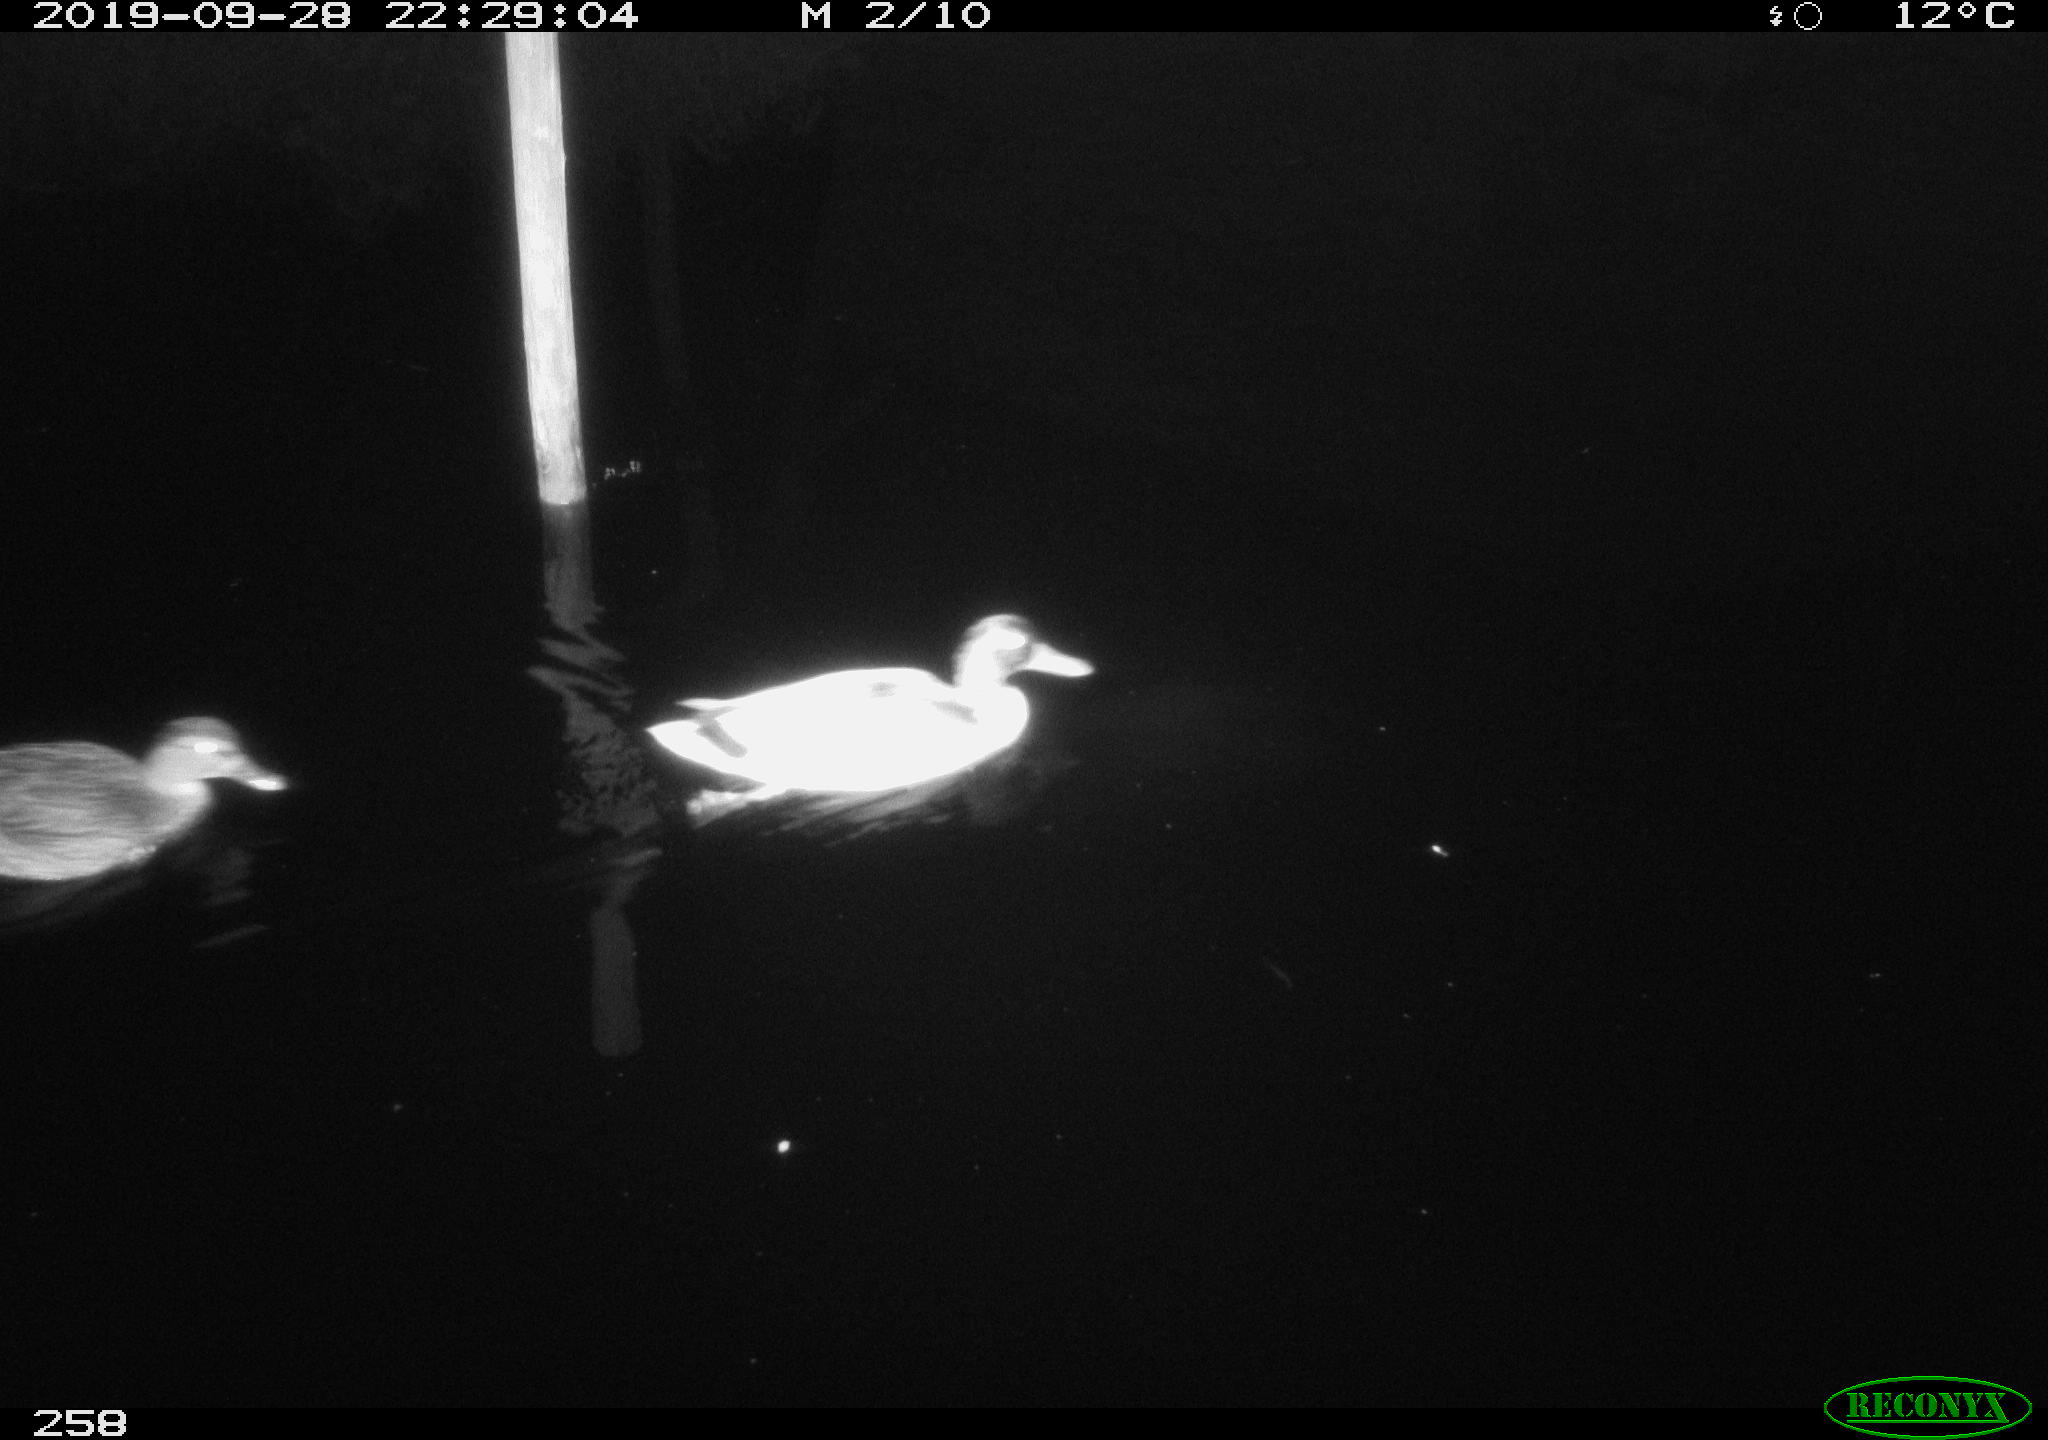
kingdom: Animalia
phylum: Chordata
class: Aves
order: Anseriformes
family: Anatidae
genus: Anas
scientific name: Anas platyrhynchos
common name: Mallard
